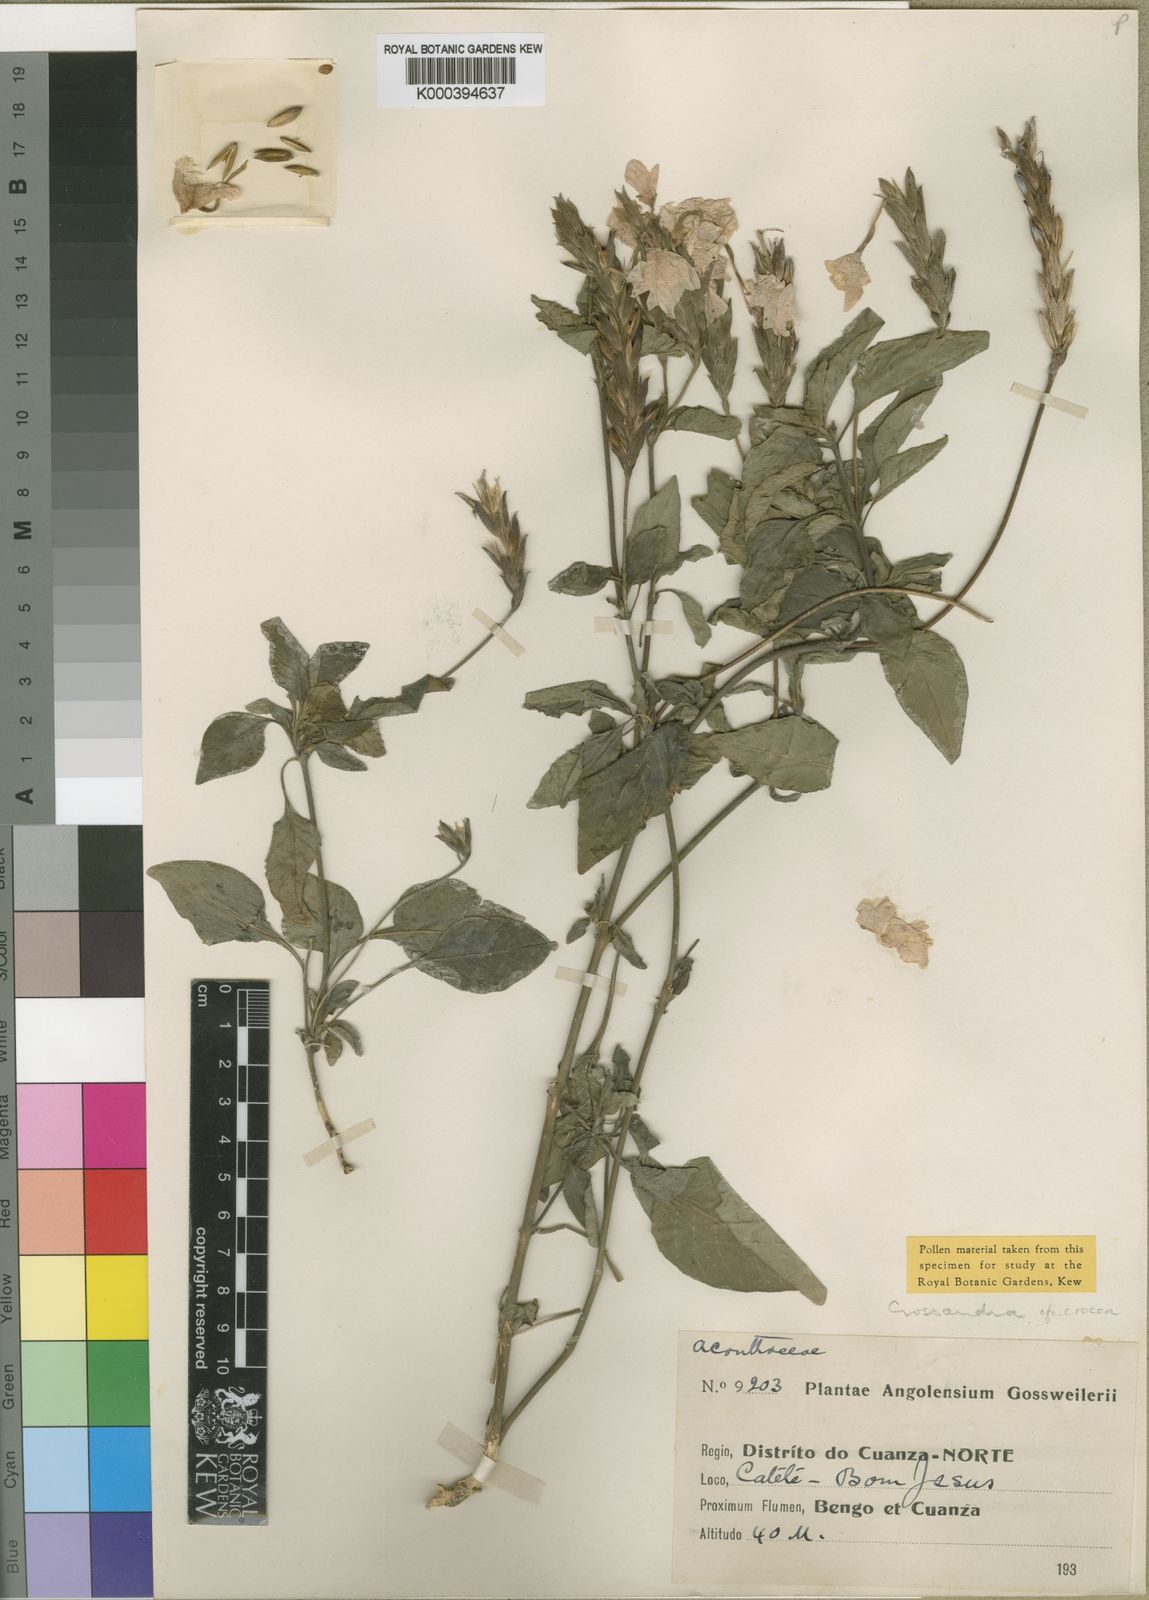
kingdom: Plantae
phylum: Tracheophyta
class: Magnoliopsida
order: Lamiales
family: Acanthaceae
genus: Crossandra
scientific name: Crossandra infundibuliformis
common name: Firecracker-flower
